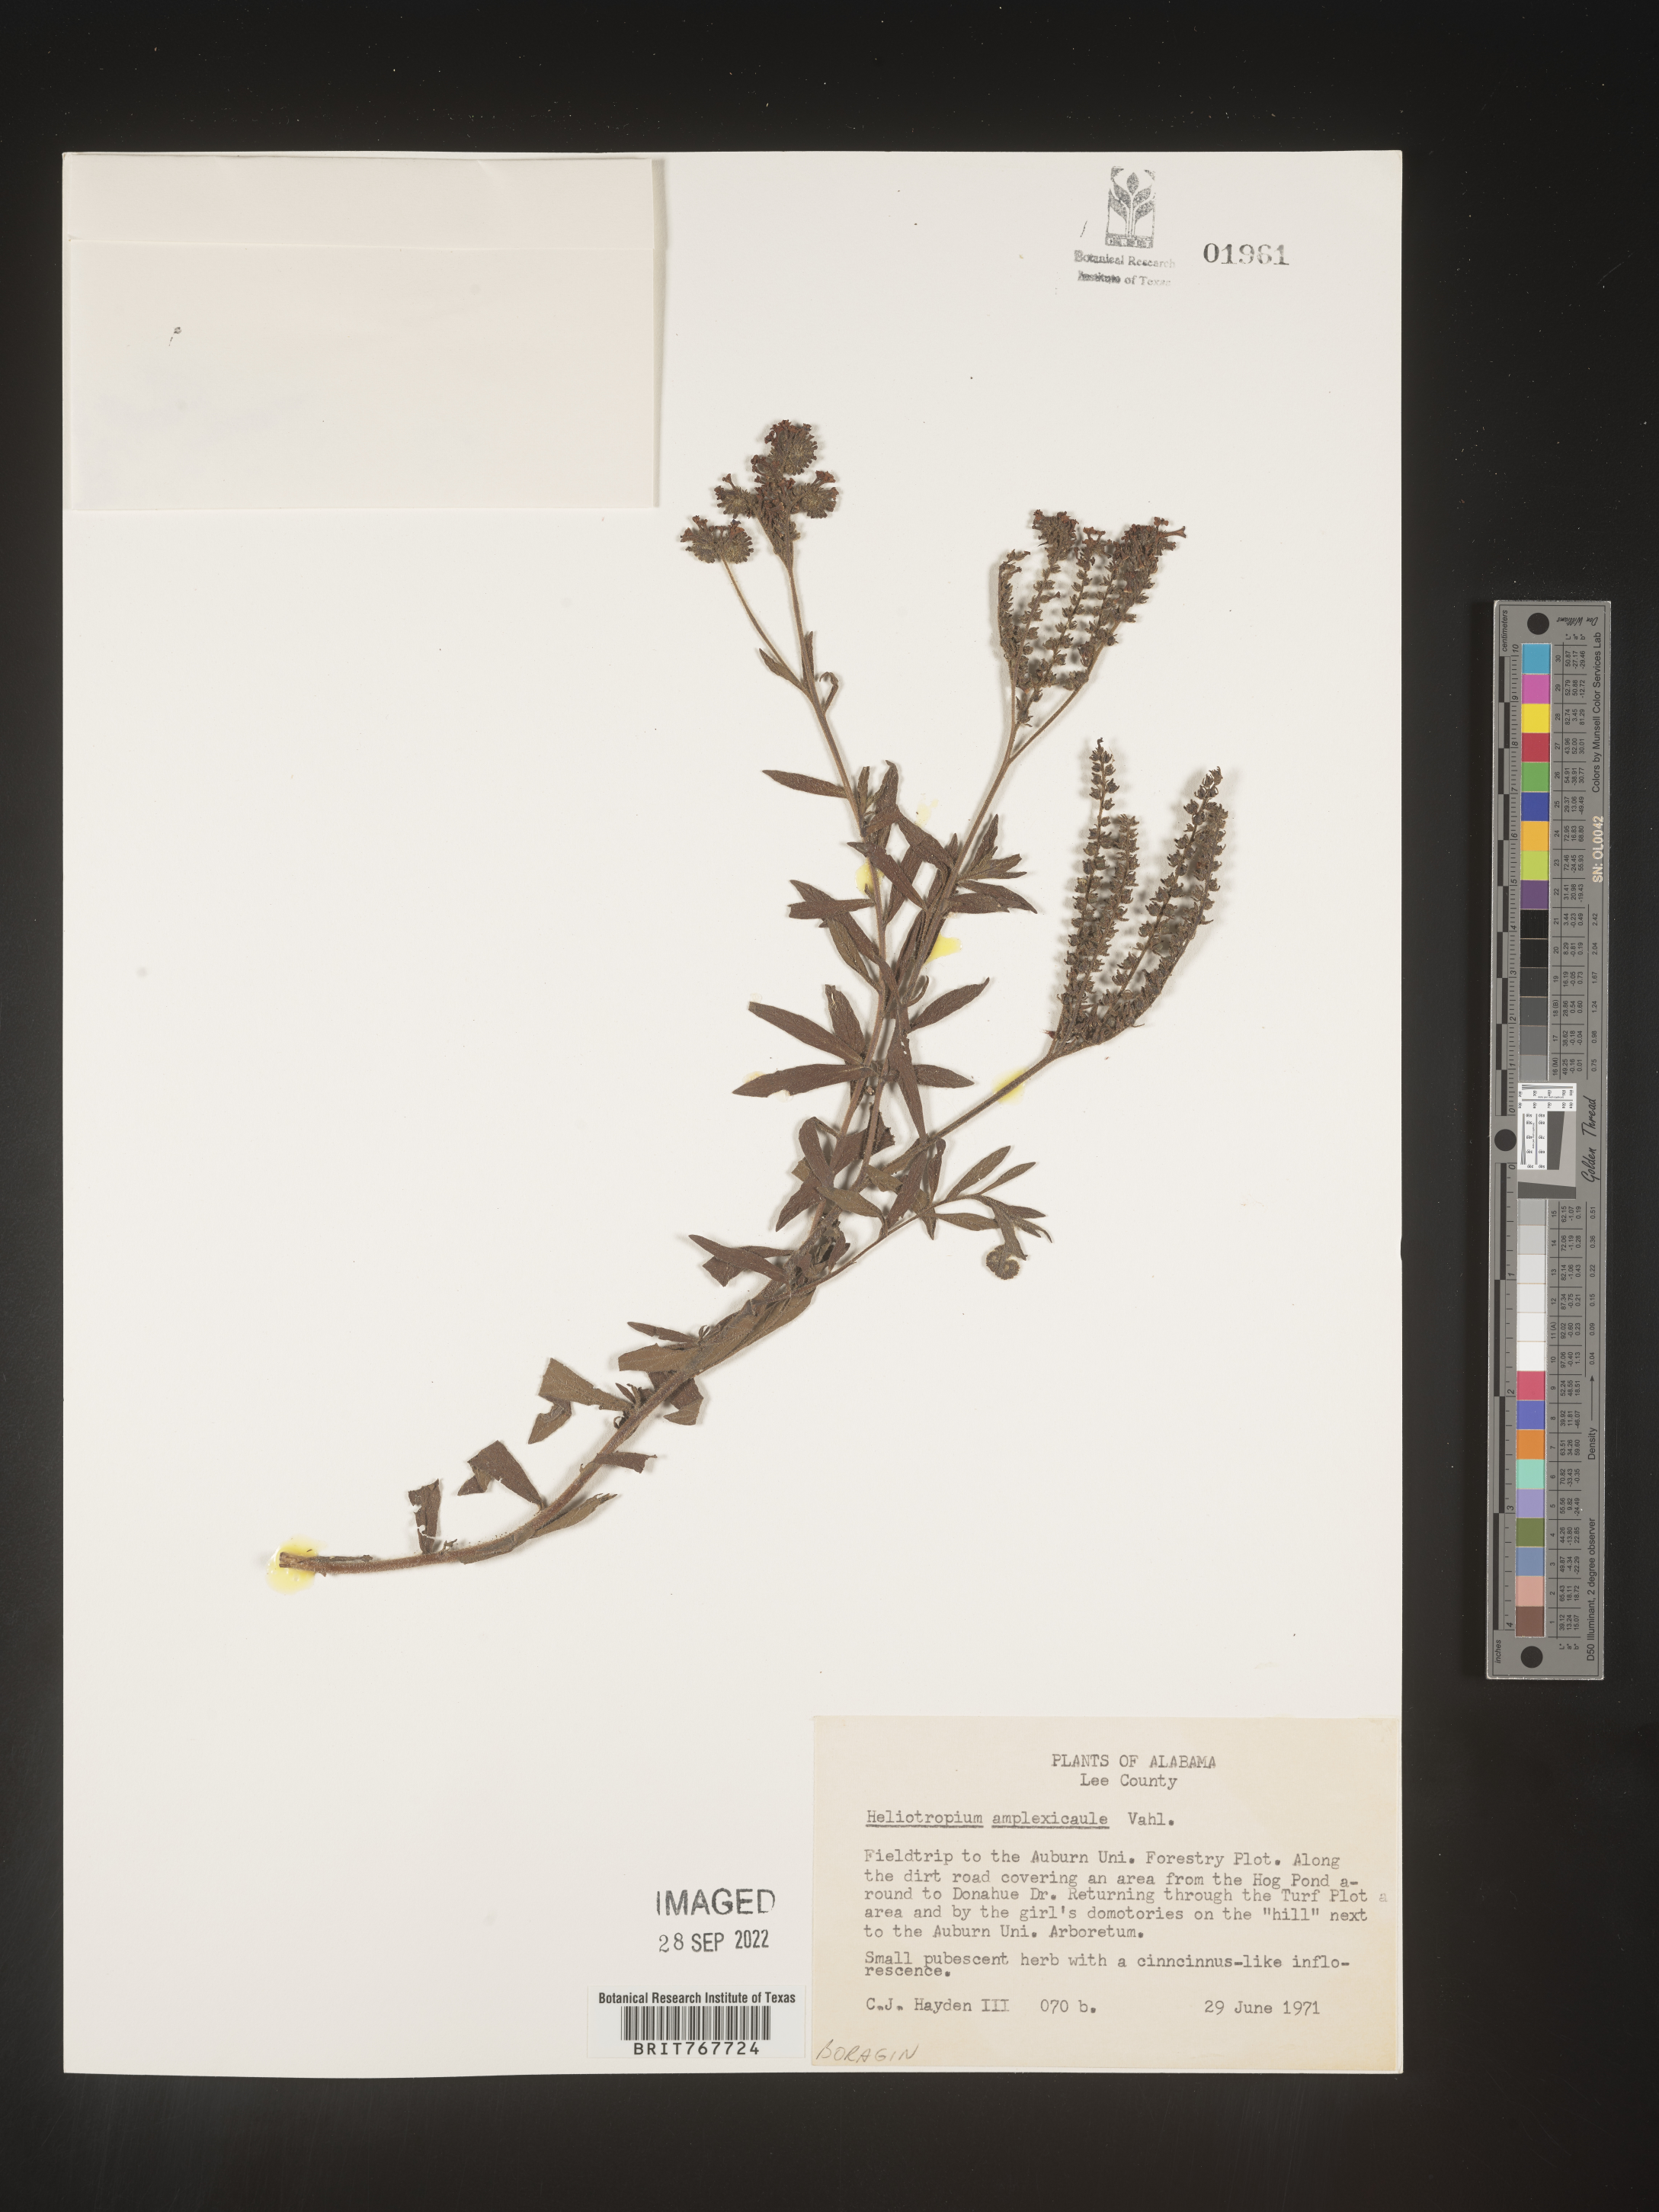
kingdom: Plantae
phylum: Tracheophyta
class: Magnoliopsida
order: Boraginales
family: Heliotropiaceae
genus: Heliotropium
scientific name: Heliotropium
